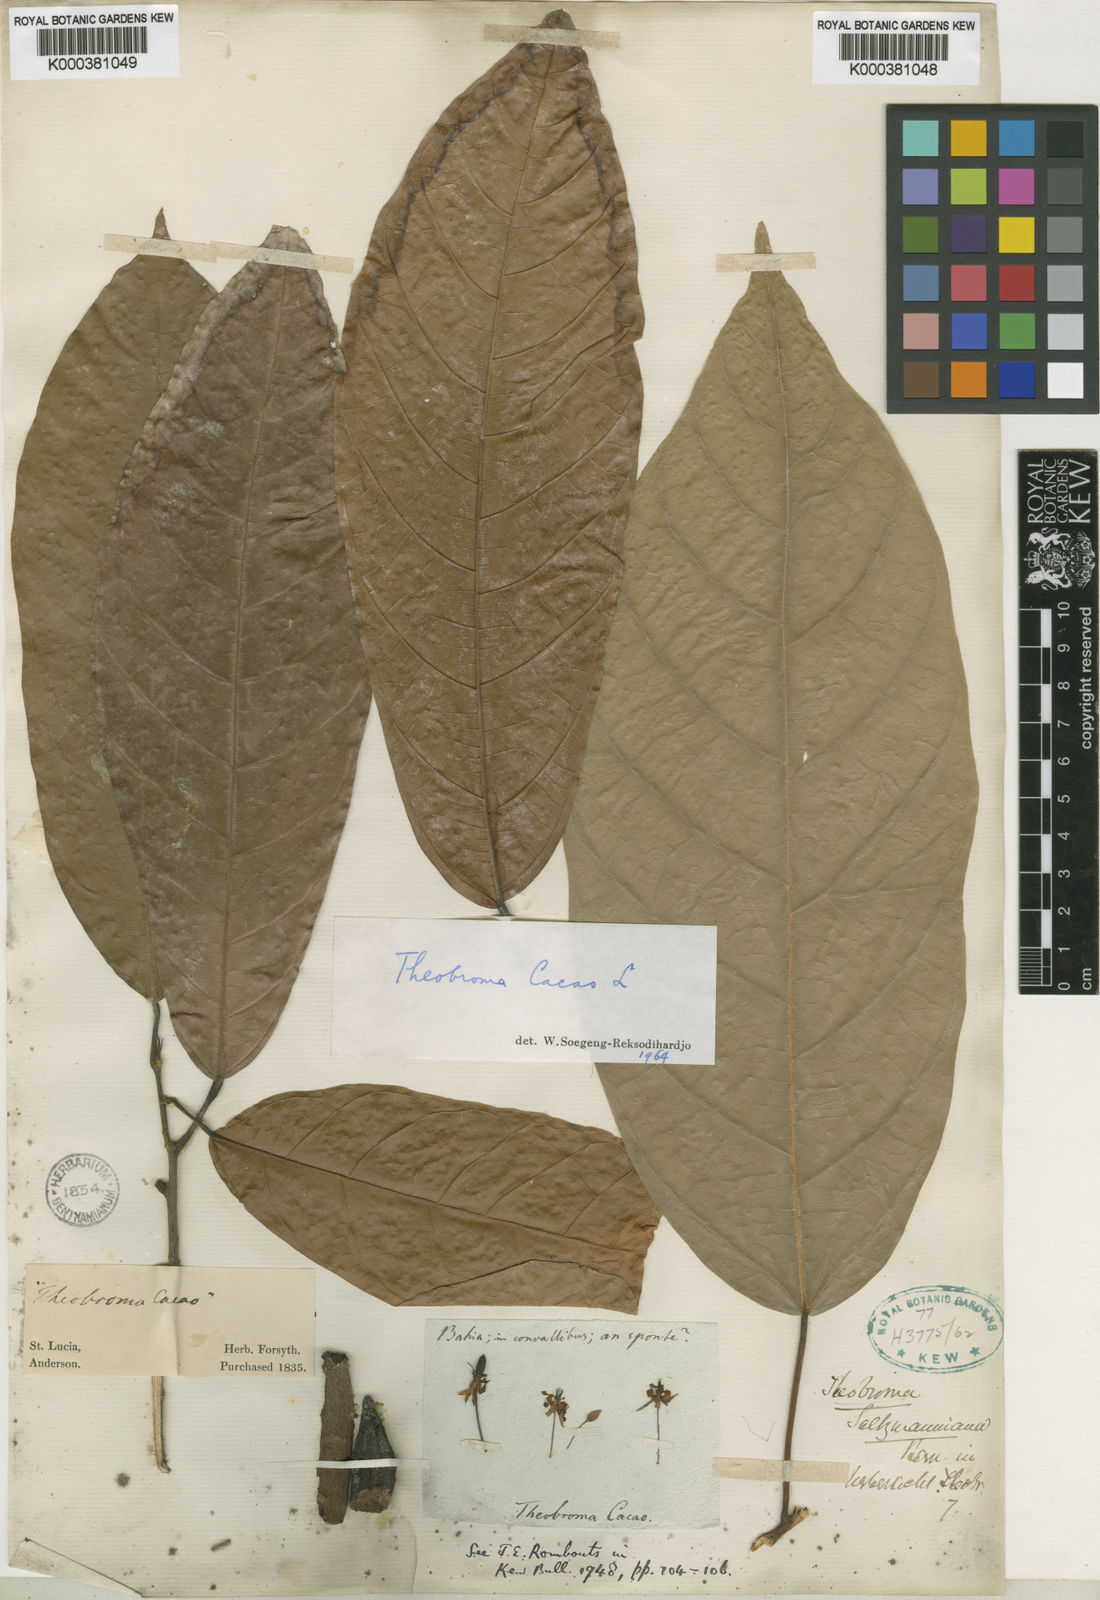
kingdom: Plantae
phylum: Tracheophyta
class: Magnoliopsida
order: Malvales
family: Malvaceae
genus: Theobroma
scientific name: Theobroma cacao
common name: Cocoa
